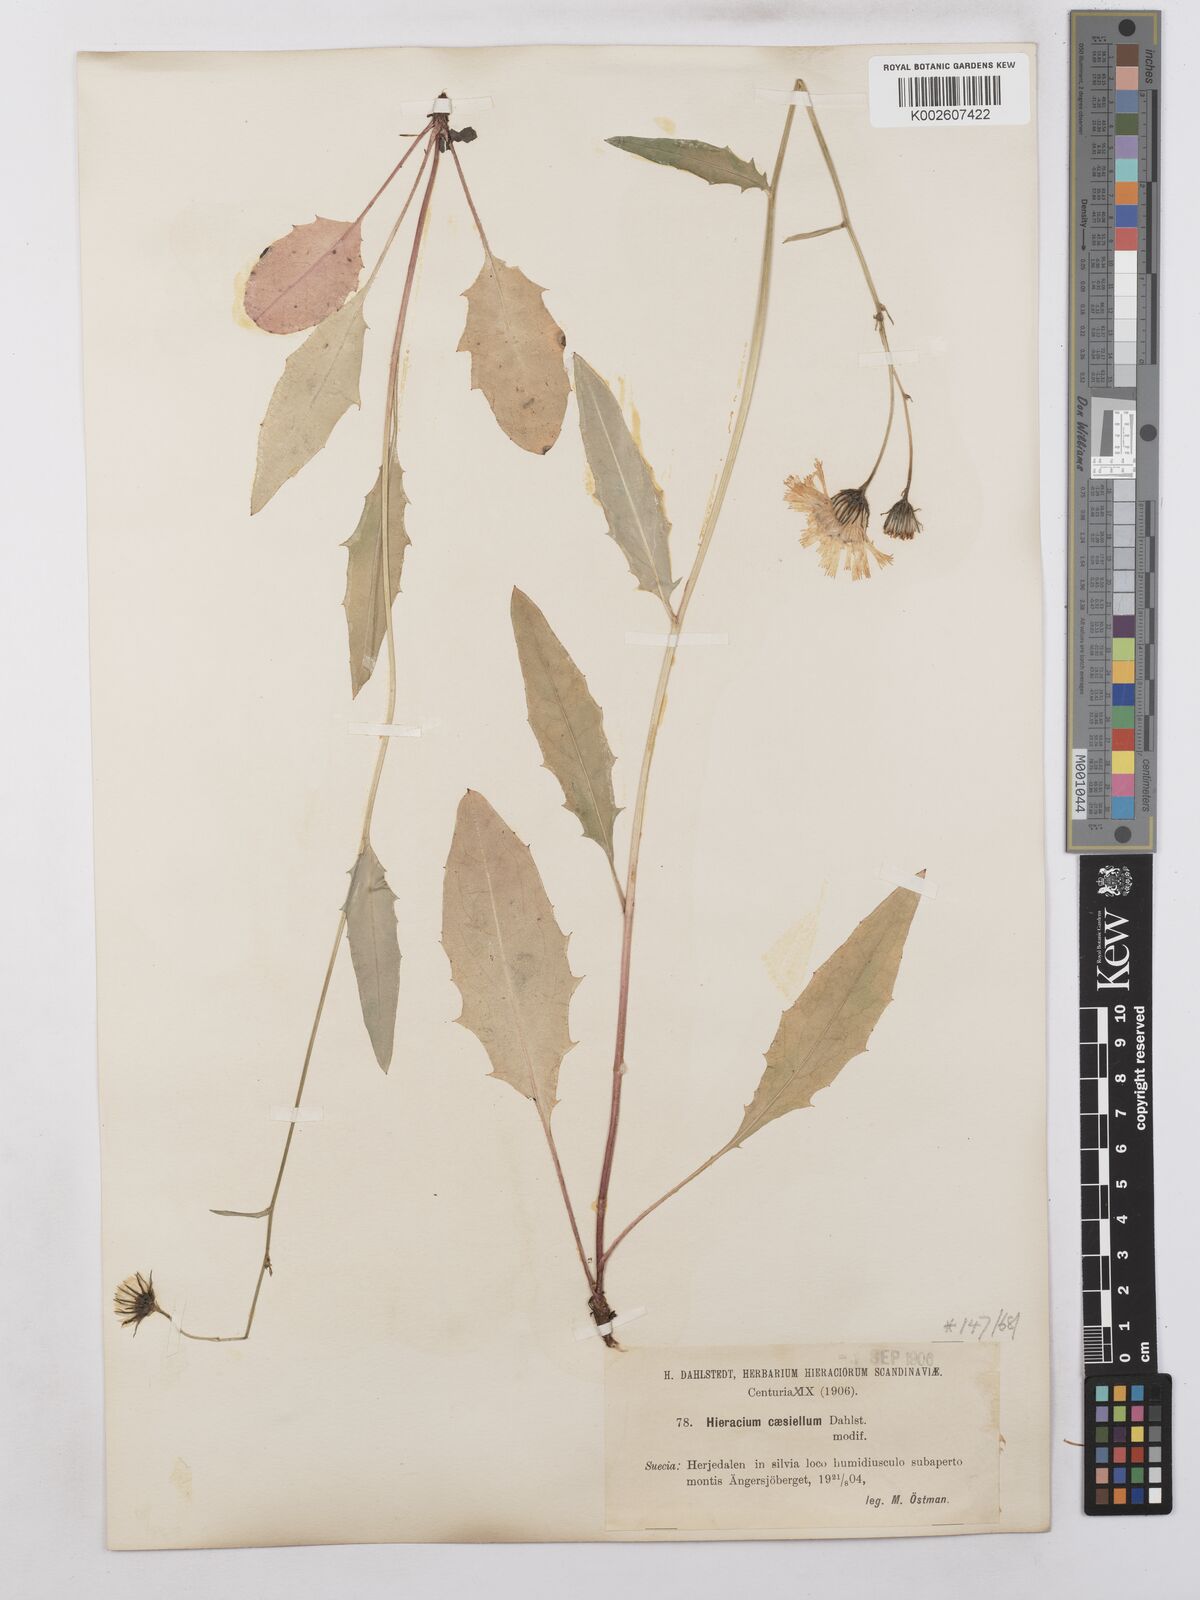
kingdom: Plantae
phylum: Tracheophyta
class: Magnoliopsida
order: Asterales
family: Asteraceae
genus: Hieracium
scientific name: Hieracium caesium
